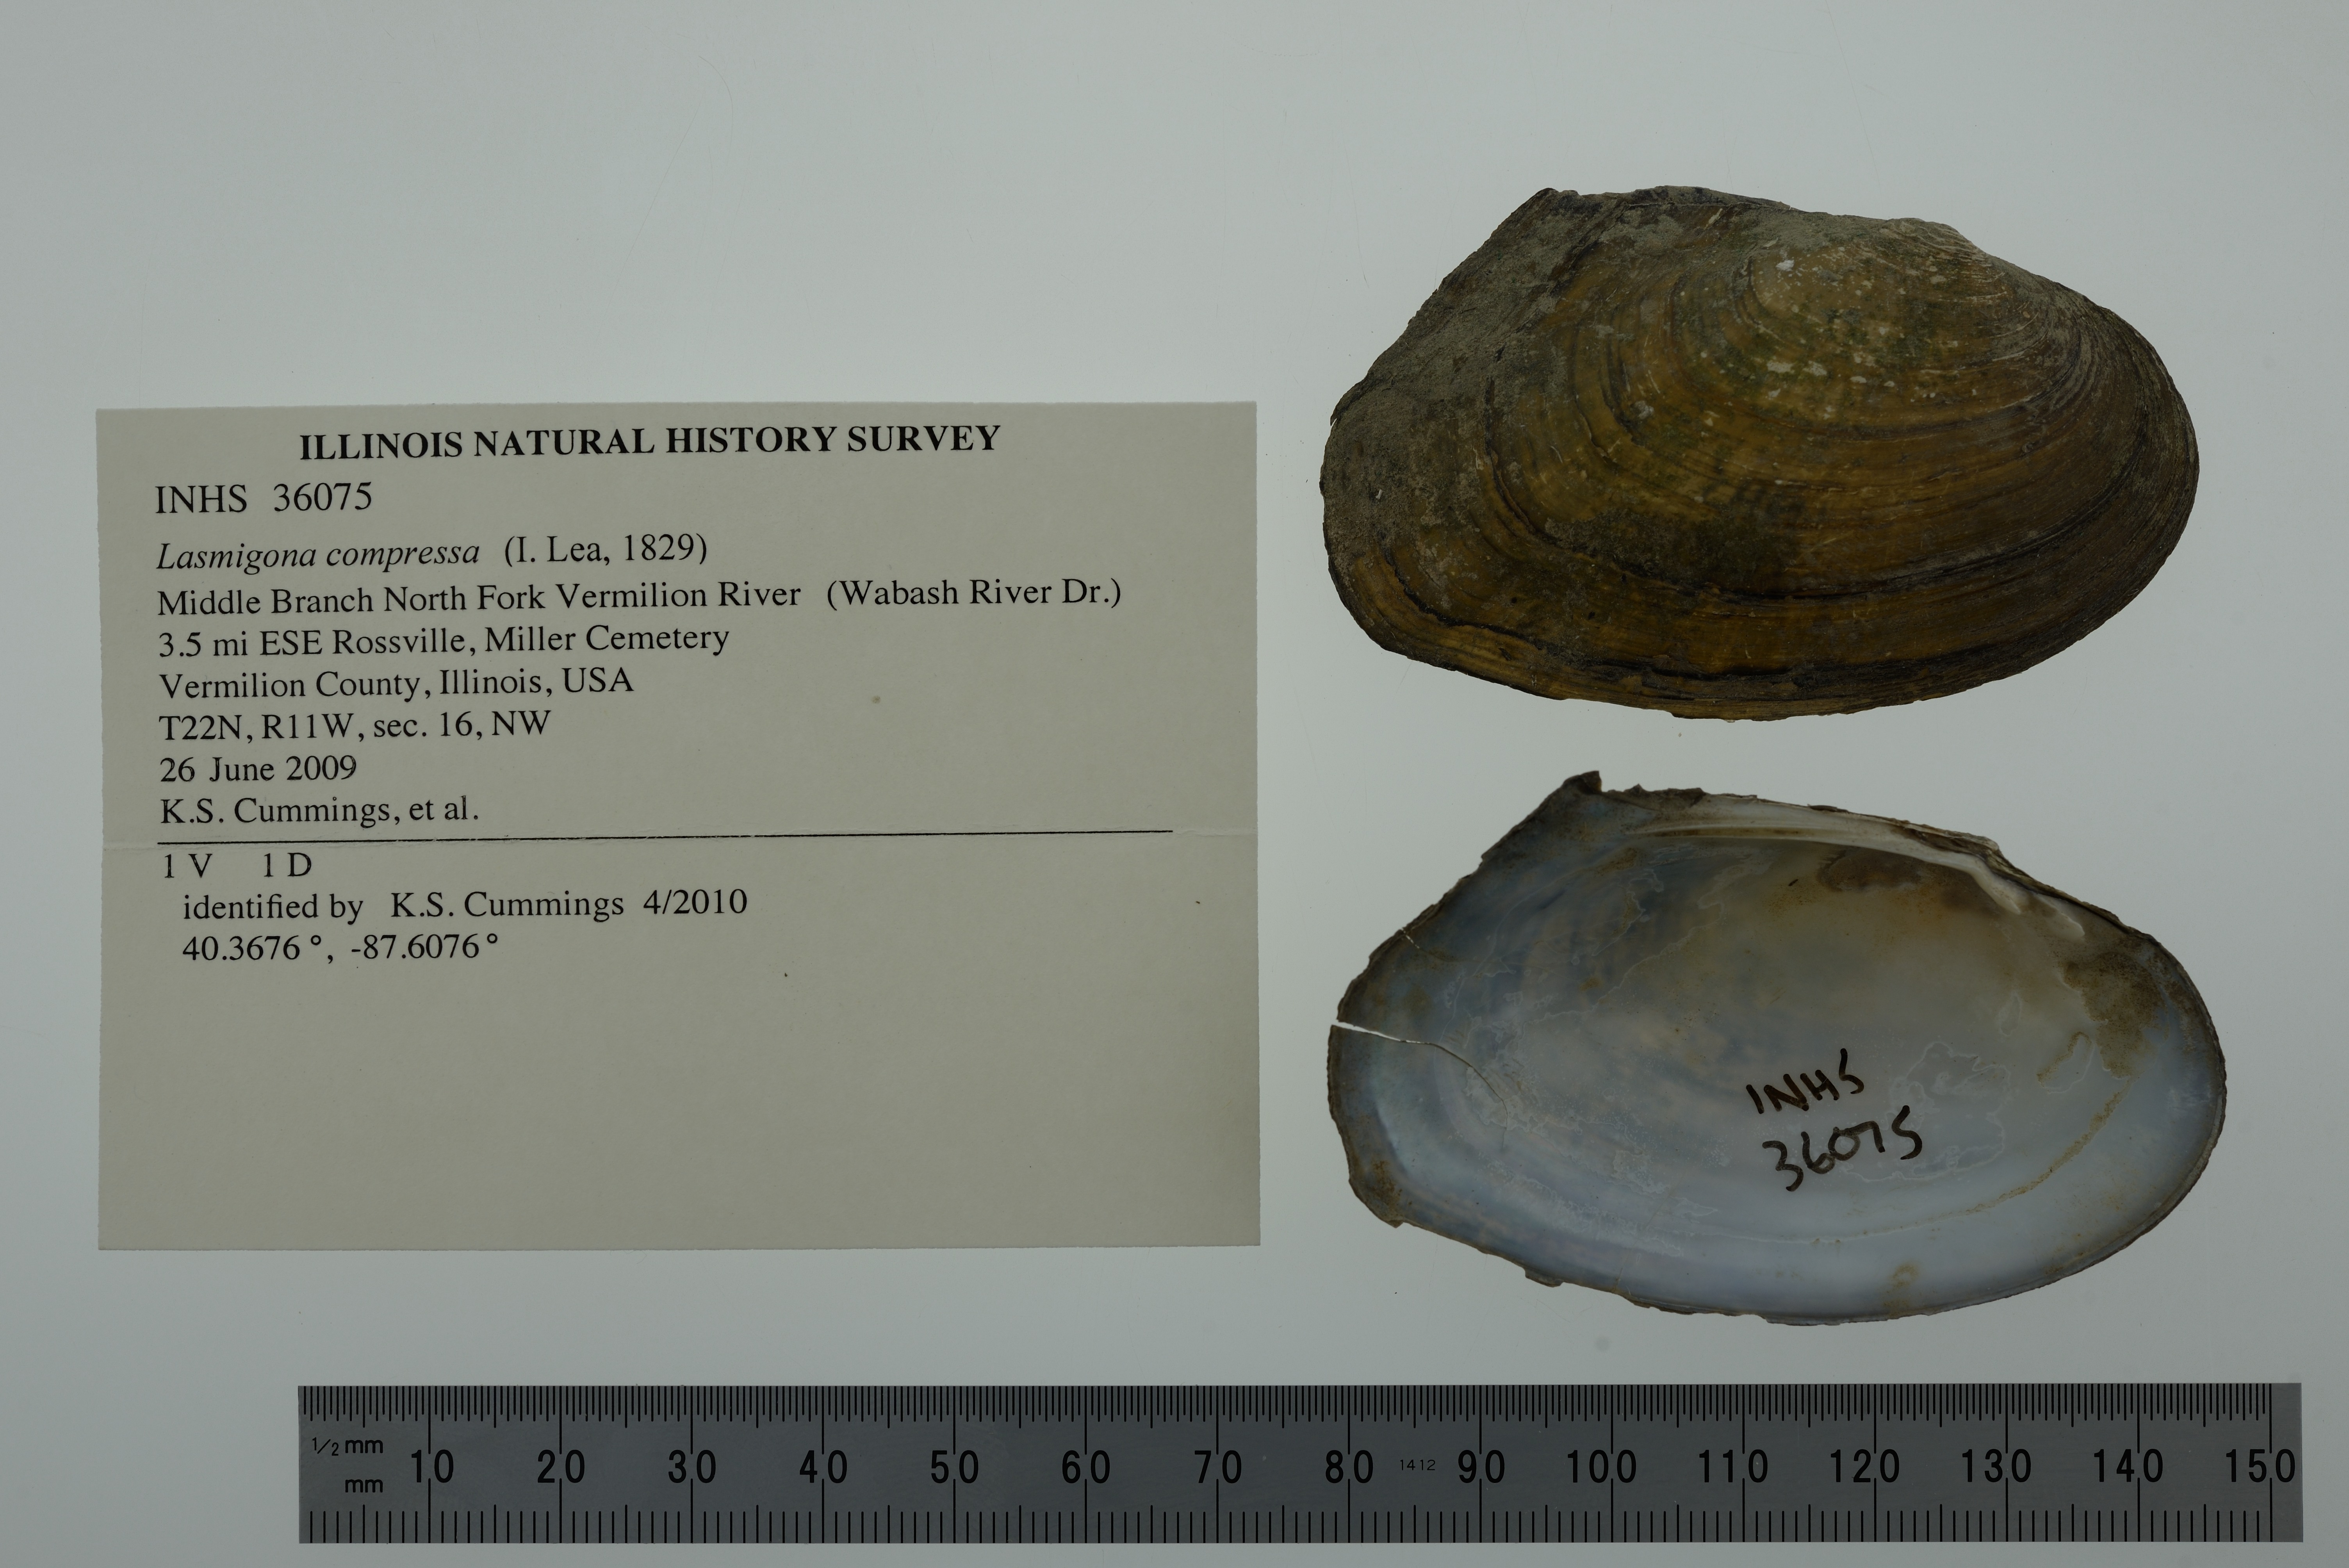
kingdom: Animalia
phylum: Mollusca
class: Bivalvia
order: Unionida
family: Unionidae
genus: Lasmigona
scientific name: Lasmigona compressa
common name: Creek heelsplitter
